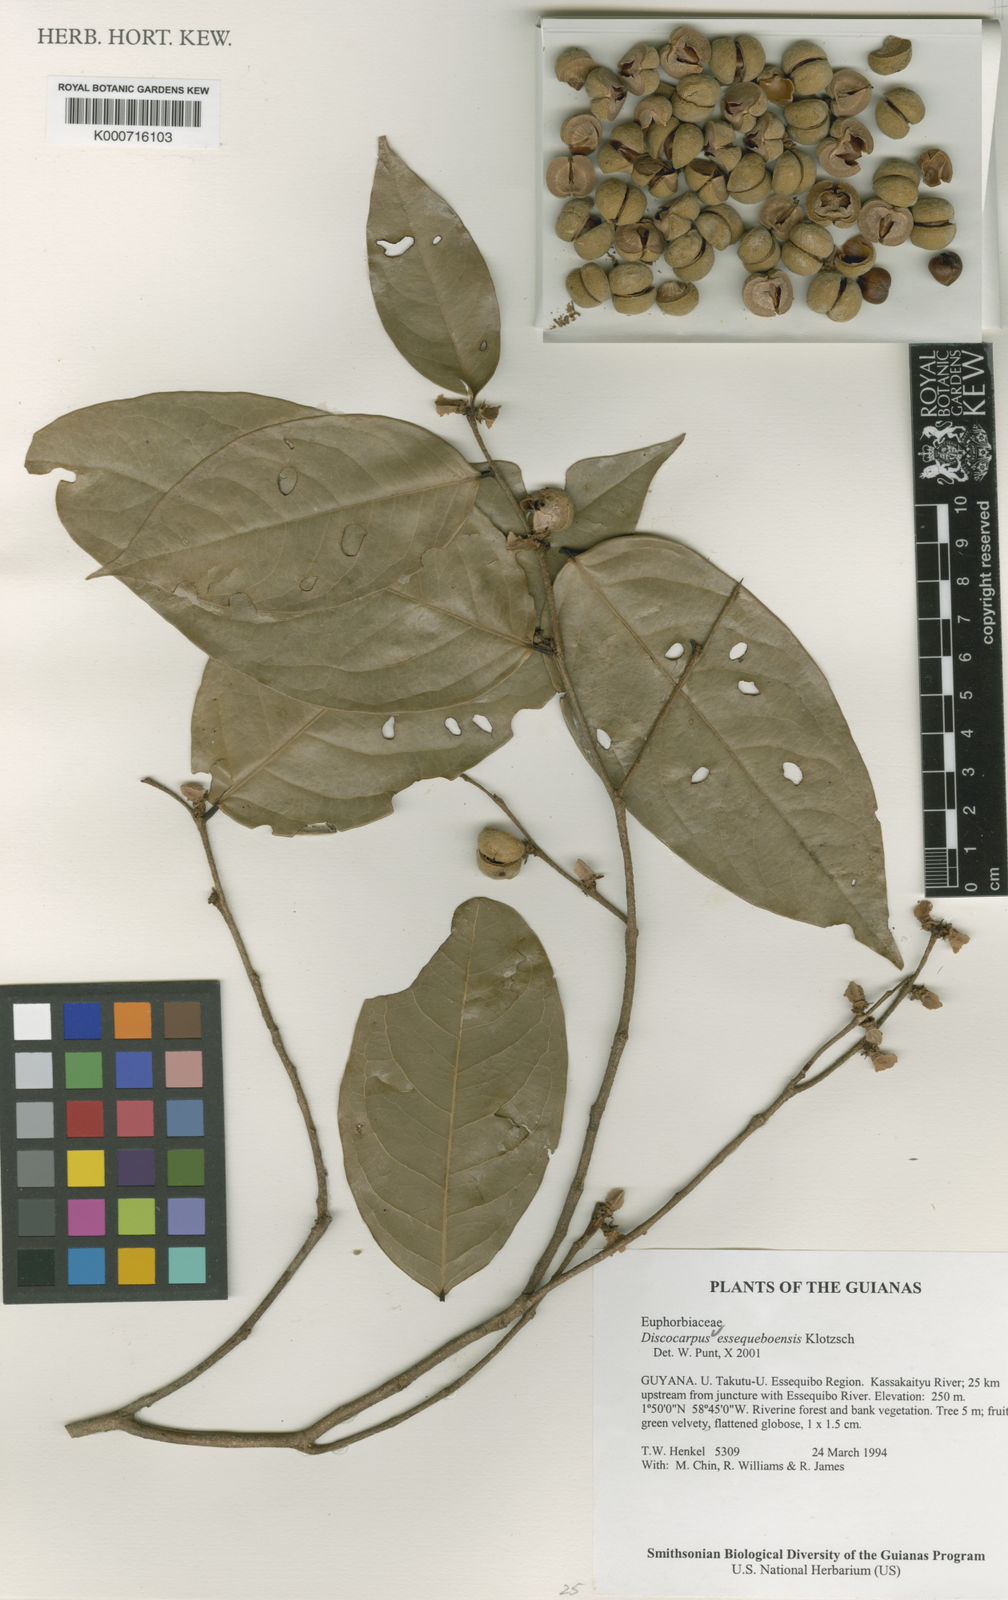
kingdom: Plantae
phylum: Tracheophyta
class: Magnoliopsida
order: Malpighiales
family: Phyllanthaceae
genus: Discocarpus
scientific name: Discocarpus essequeboensis
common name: Sqaure-wood
